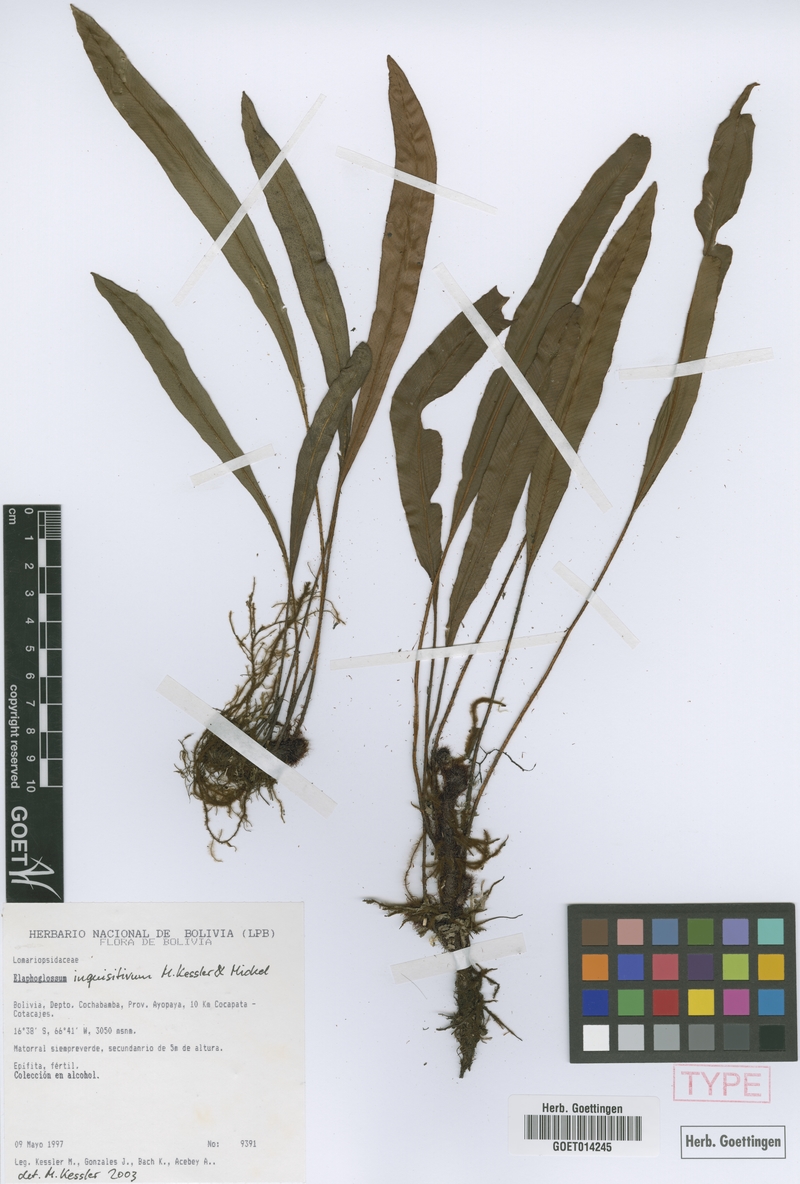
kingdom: Plantae
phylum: Tracheophyta
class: Polypodiopsida
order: Polypodiales
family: Dryopteridaceae
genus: Elaphoglossum
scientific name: Elaphoglossum inquisitivum
